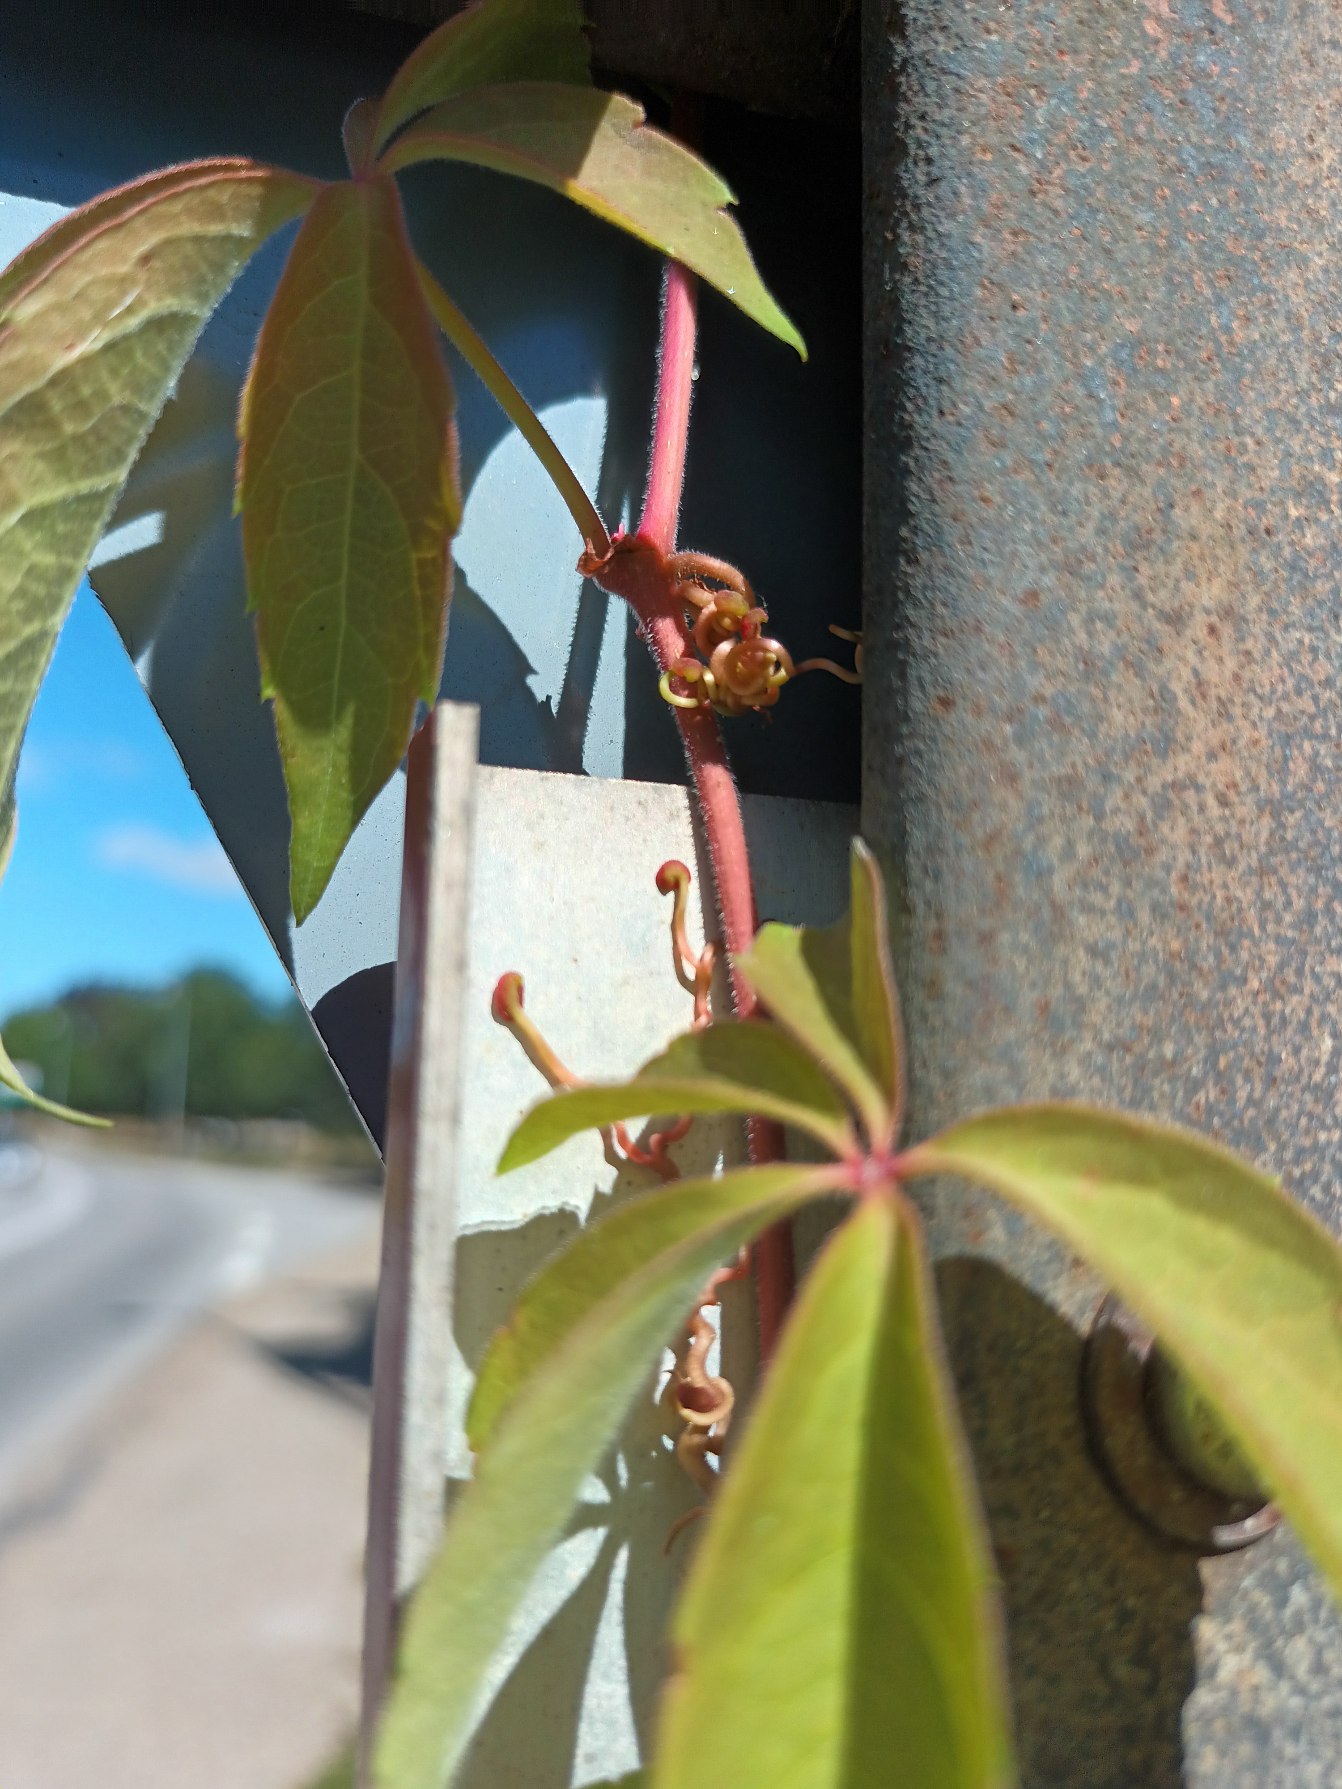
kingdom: Plantae
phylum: Tracheophyta
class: Magnoliopsida
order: Vitales
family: Vitaceae
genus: Parthenocissus
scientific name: Parthenocissus inserta
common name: Vildvin
